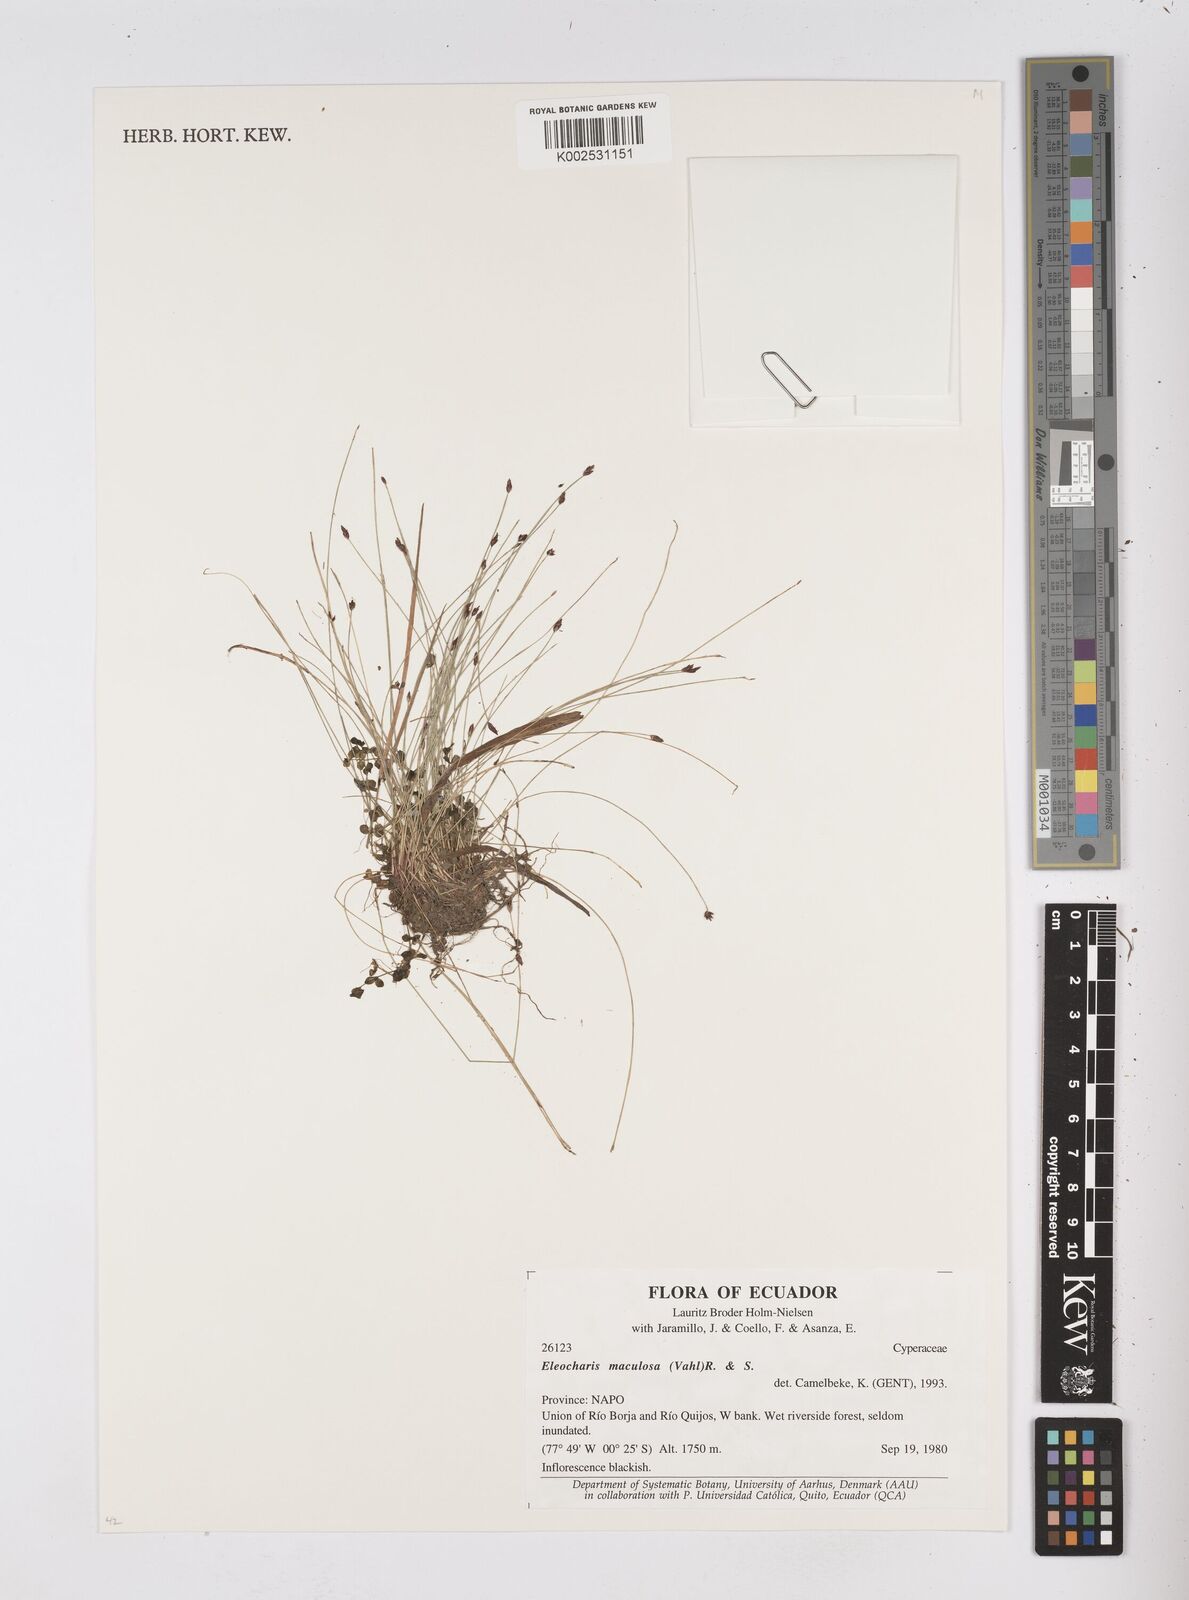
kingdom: Plantae
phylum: Tracheophyta
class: Liliopsida
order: Poales
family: Cyperaceae
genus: Eleocharis
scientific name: Eleocharis maculosa
